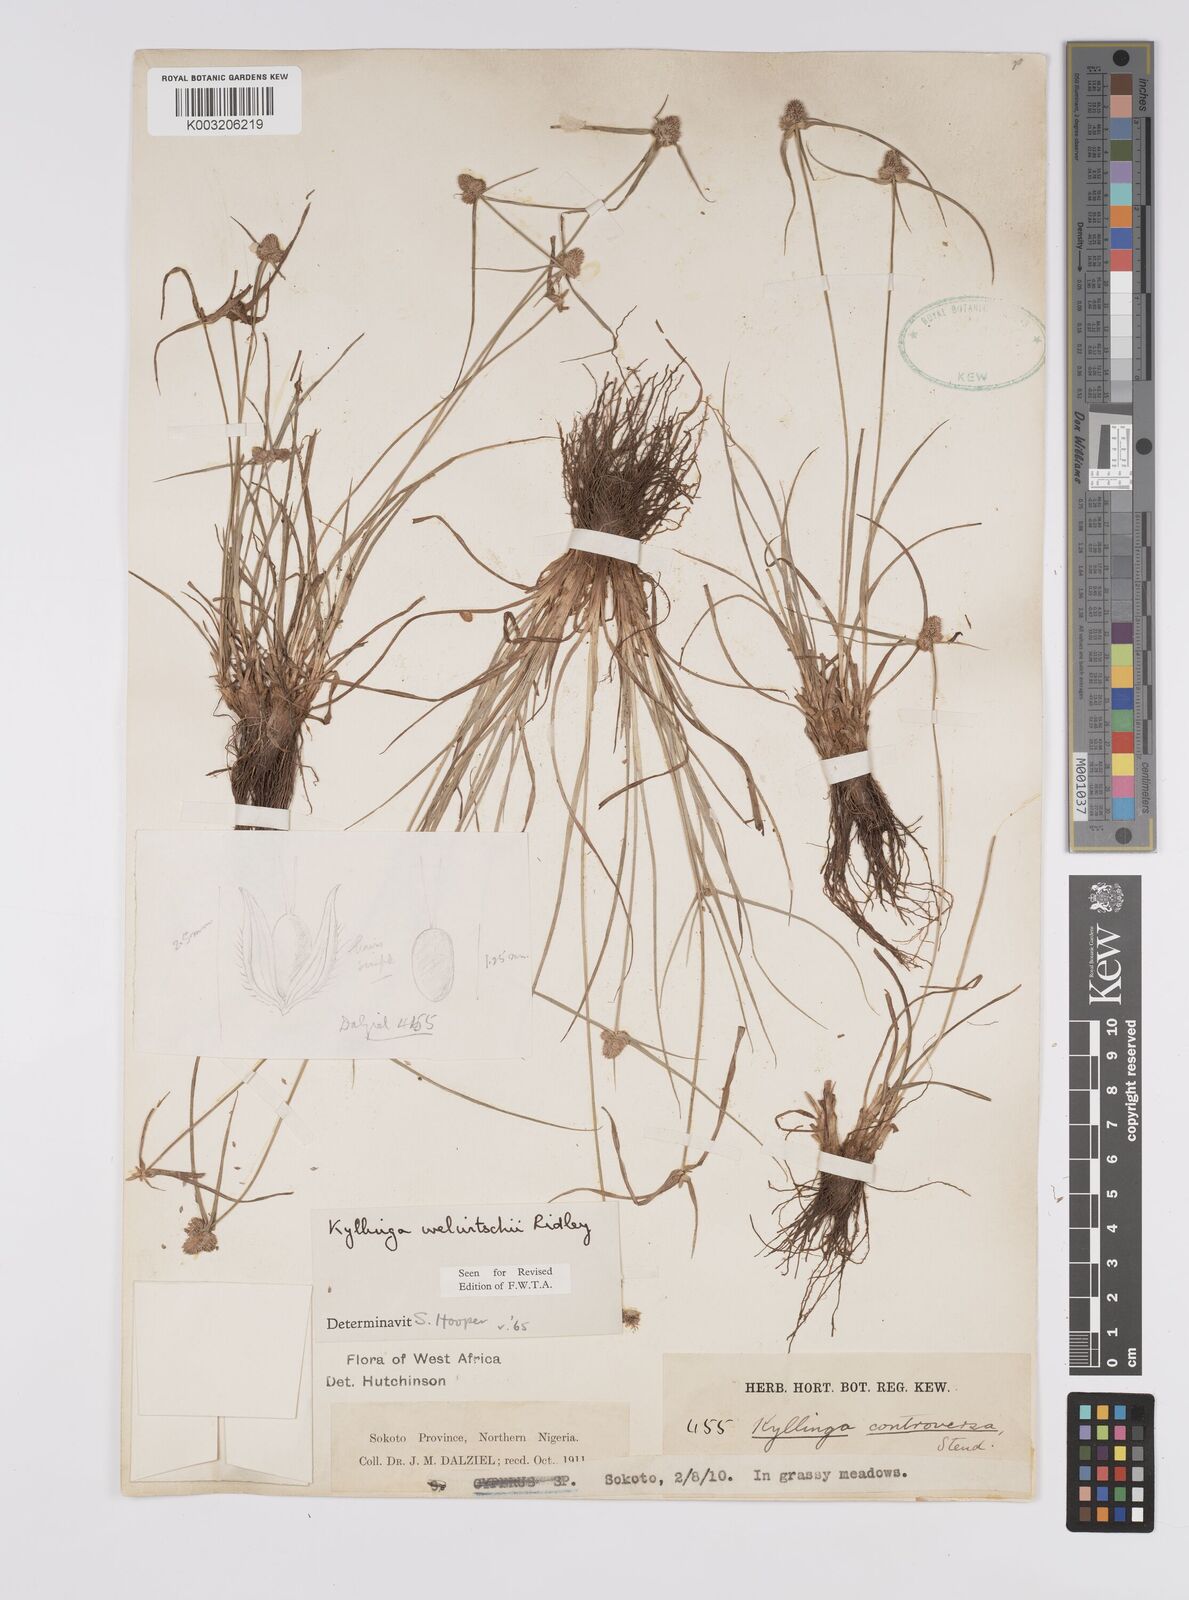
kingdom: Plantae
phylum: Tracheophyta
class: Liliopsida
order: Poales
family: Cyperaceae
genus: Cyperus
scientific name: Cyperus
